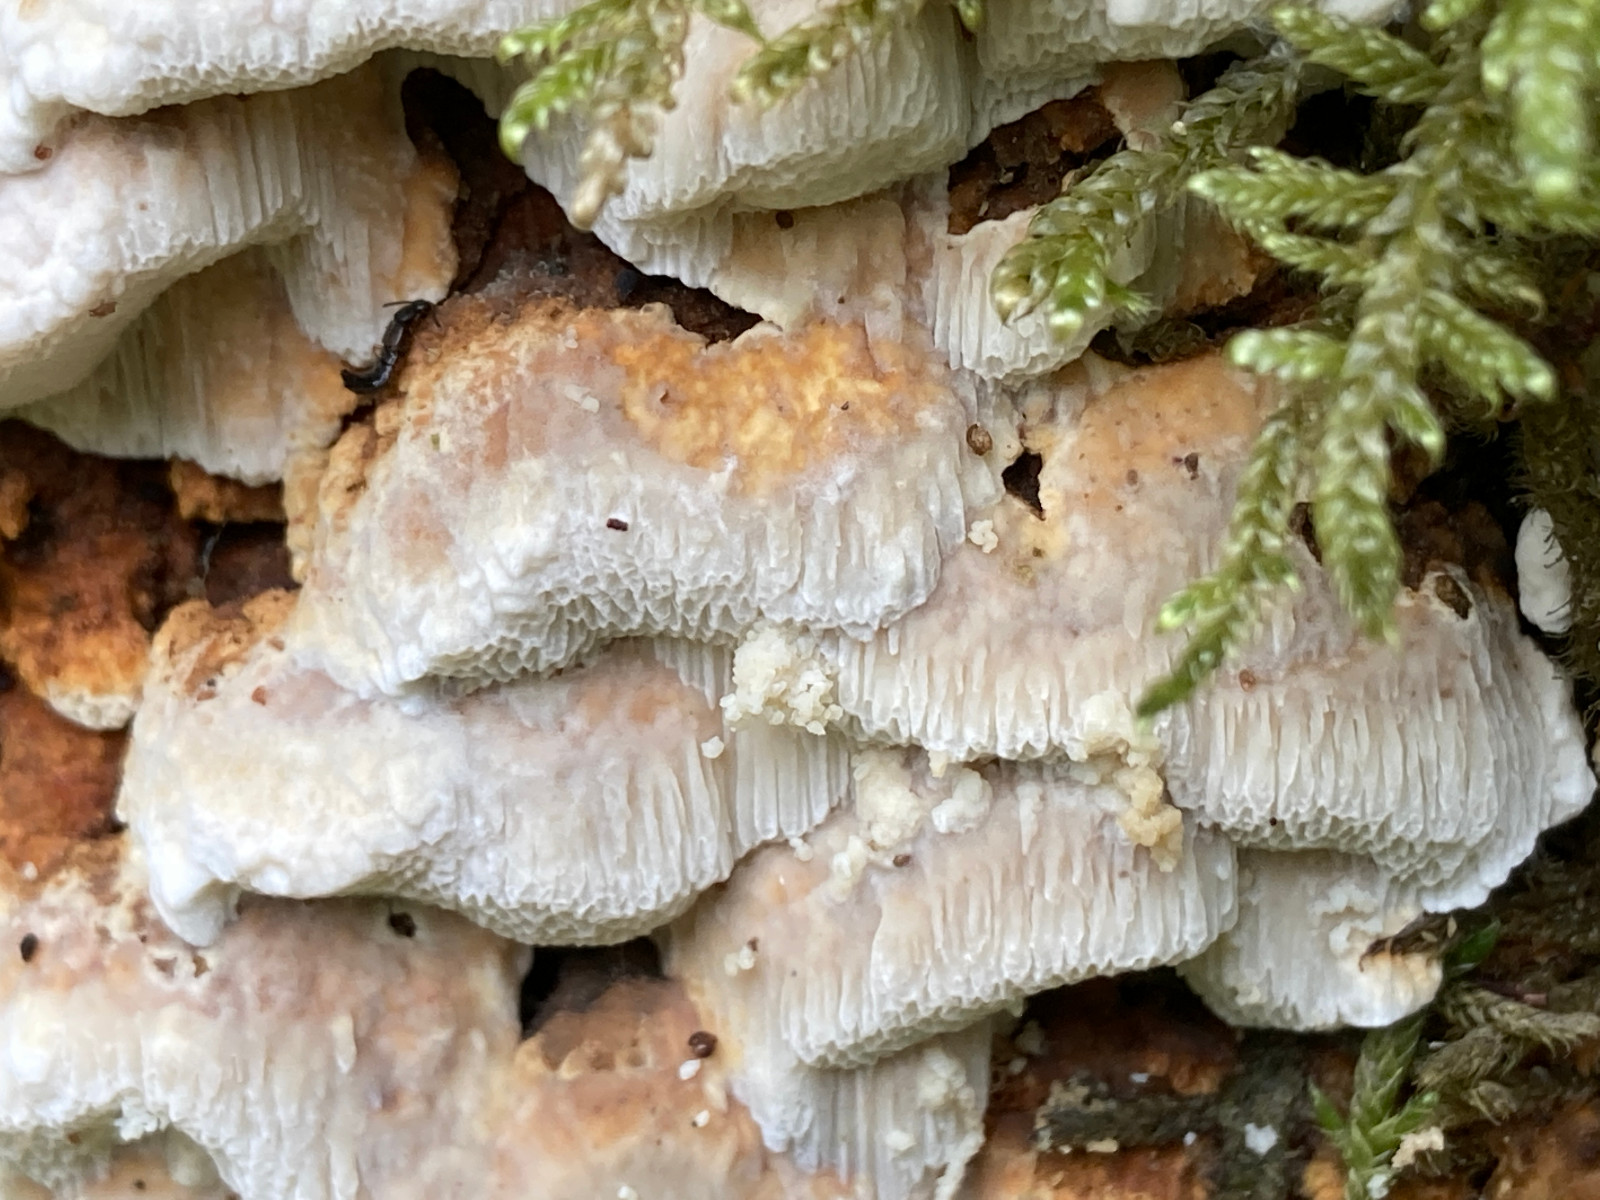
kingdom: Fungi
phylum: Basidiomycota
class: Agaricomycetes
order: Polyporales
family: Fomitopsidaceae
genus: Neoantrodia
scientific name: Neoantrodia serialis
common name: række-sejporesvamp
